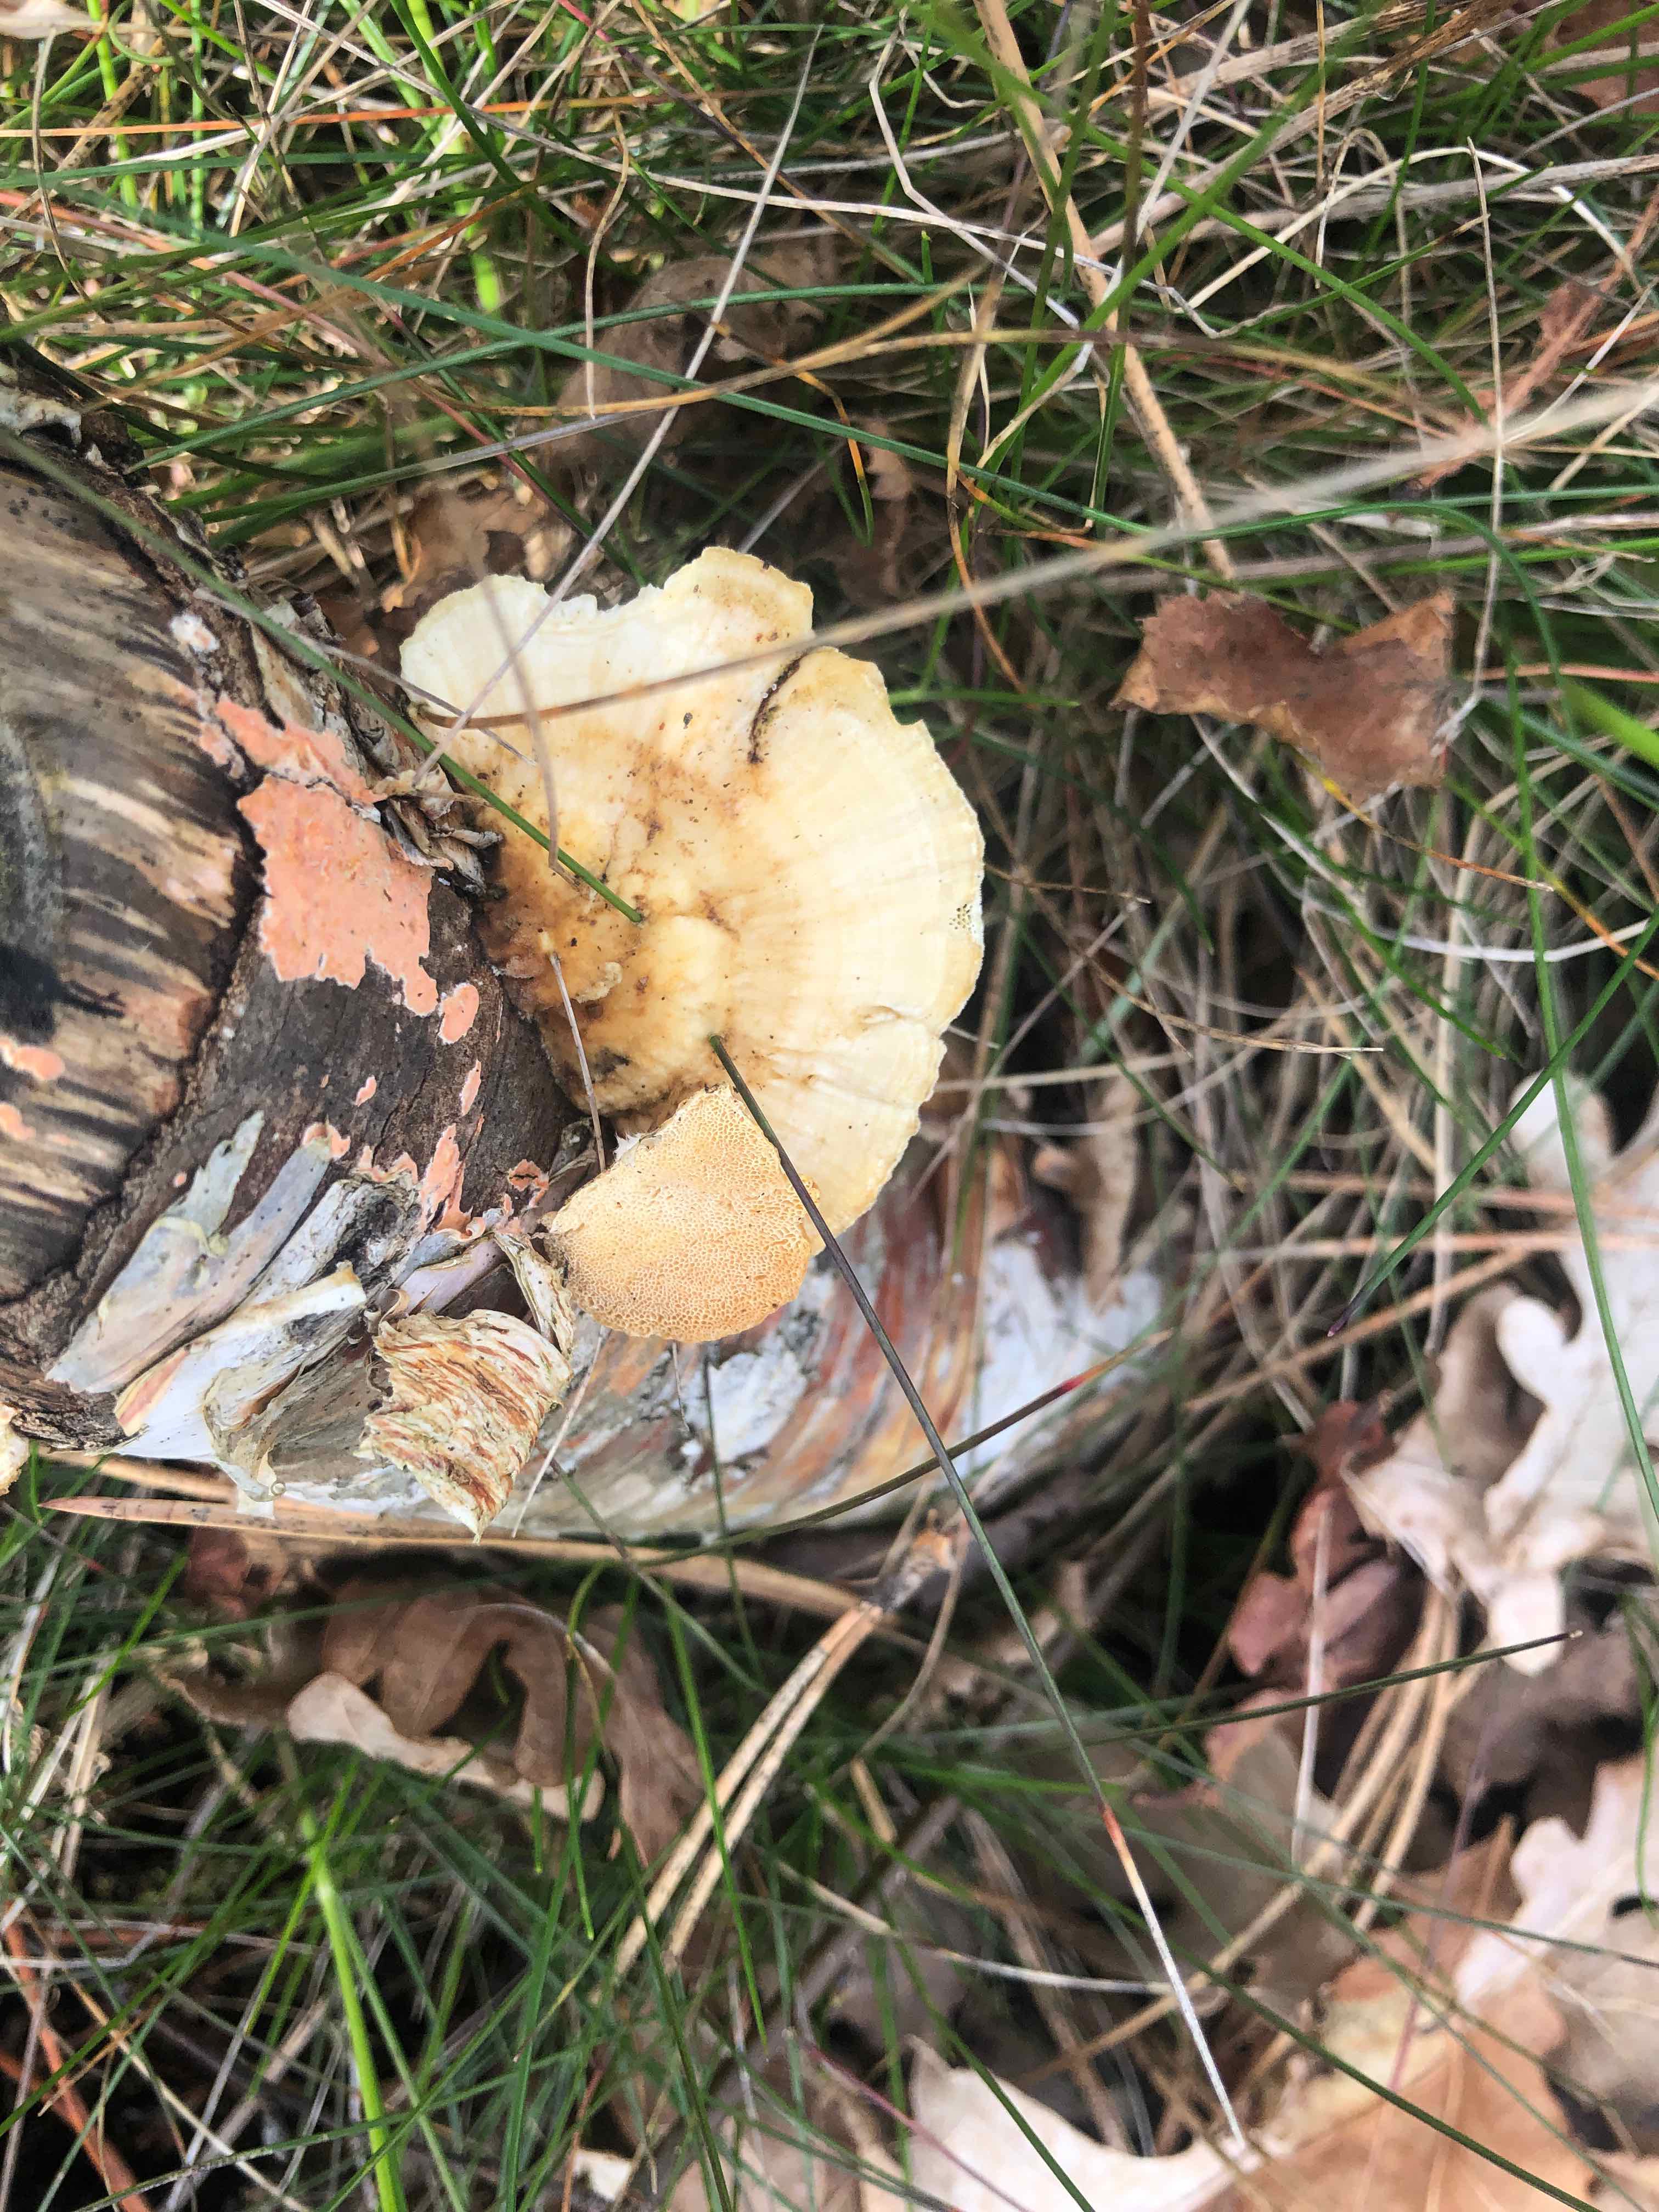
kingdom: Fungi
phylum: Basidiomycota
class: Agaricomycetes
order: Polyporales
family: Polyporaceae
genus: Trametes
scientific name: Trametes ochracea
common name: bæltet læderporesvamp
